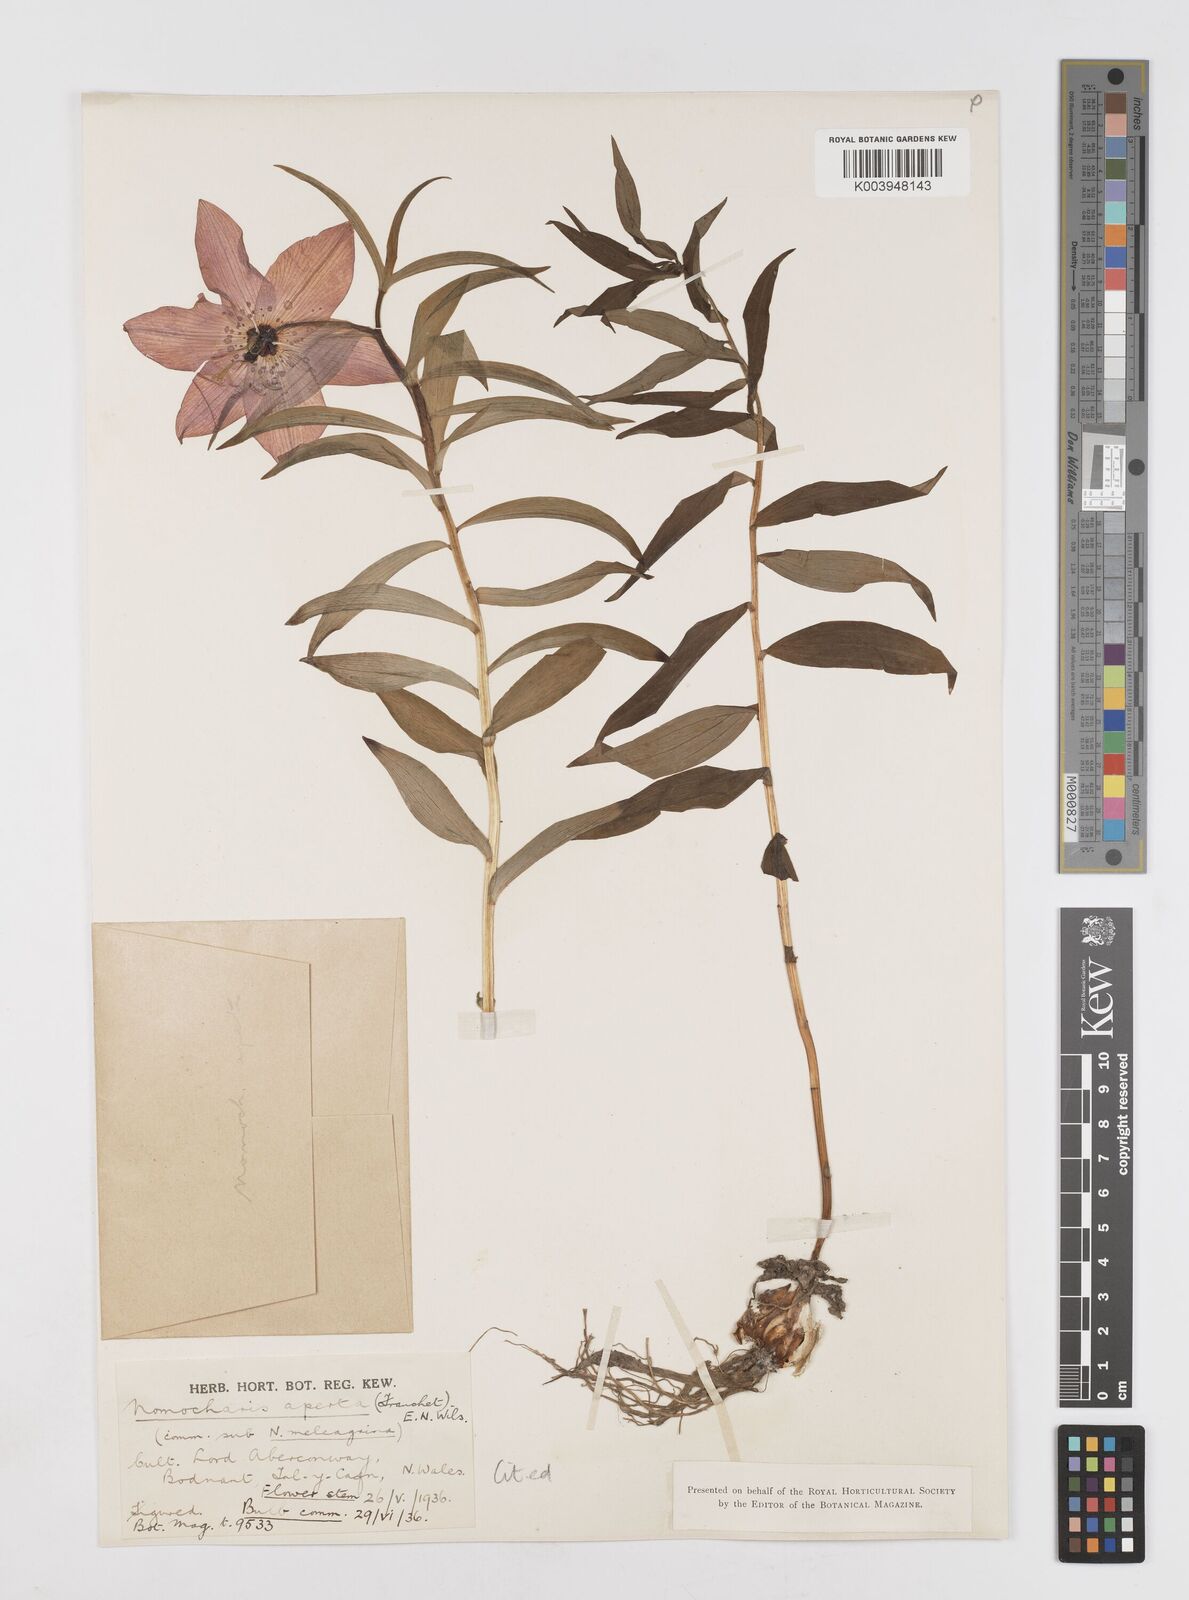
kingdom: Plantae
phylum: Tracheophyta
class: Liliopsida
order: Liliales
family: Liliaceae
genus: Lilium
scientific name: Lilium apertum
